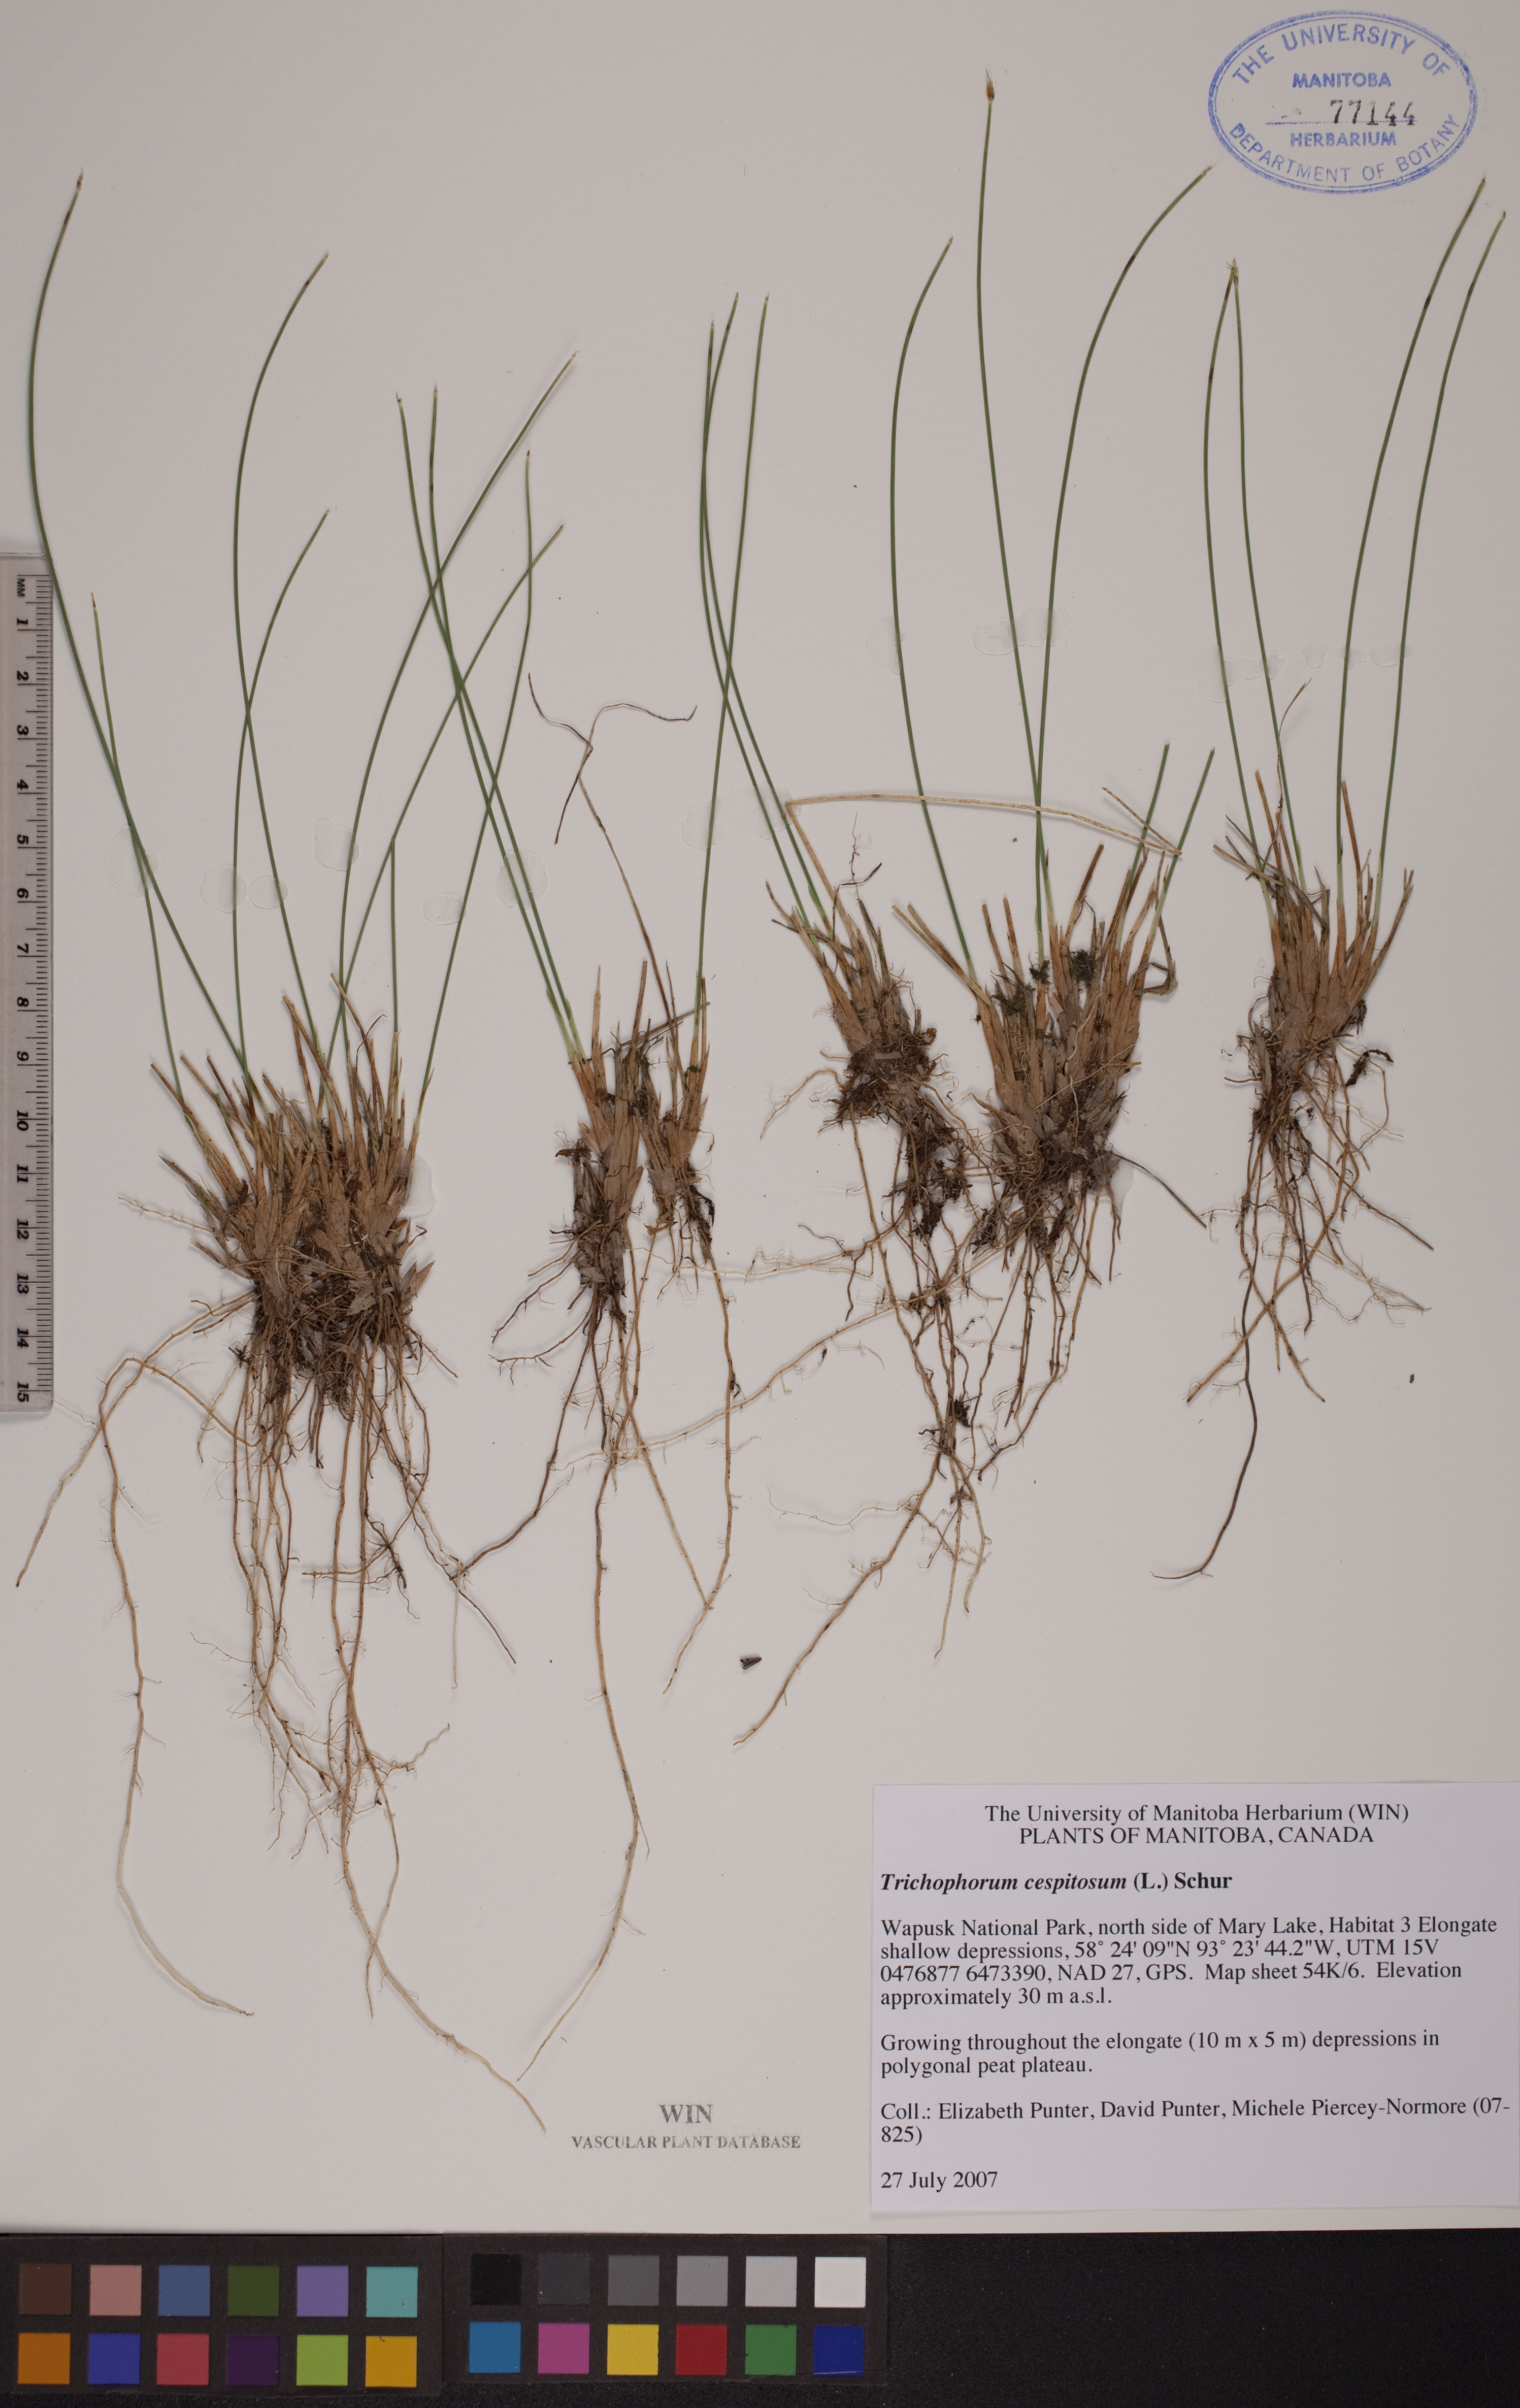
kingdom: Plantae
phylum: Tracheophyta
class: Liliopsida
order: Poales
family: Cyperaceae
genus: Trichophorum
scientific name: Trichophorum cespitosum
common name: Cespitose bulrush
